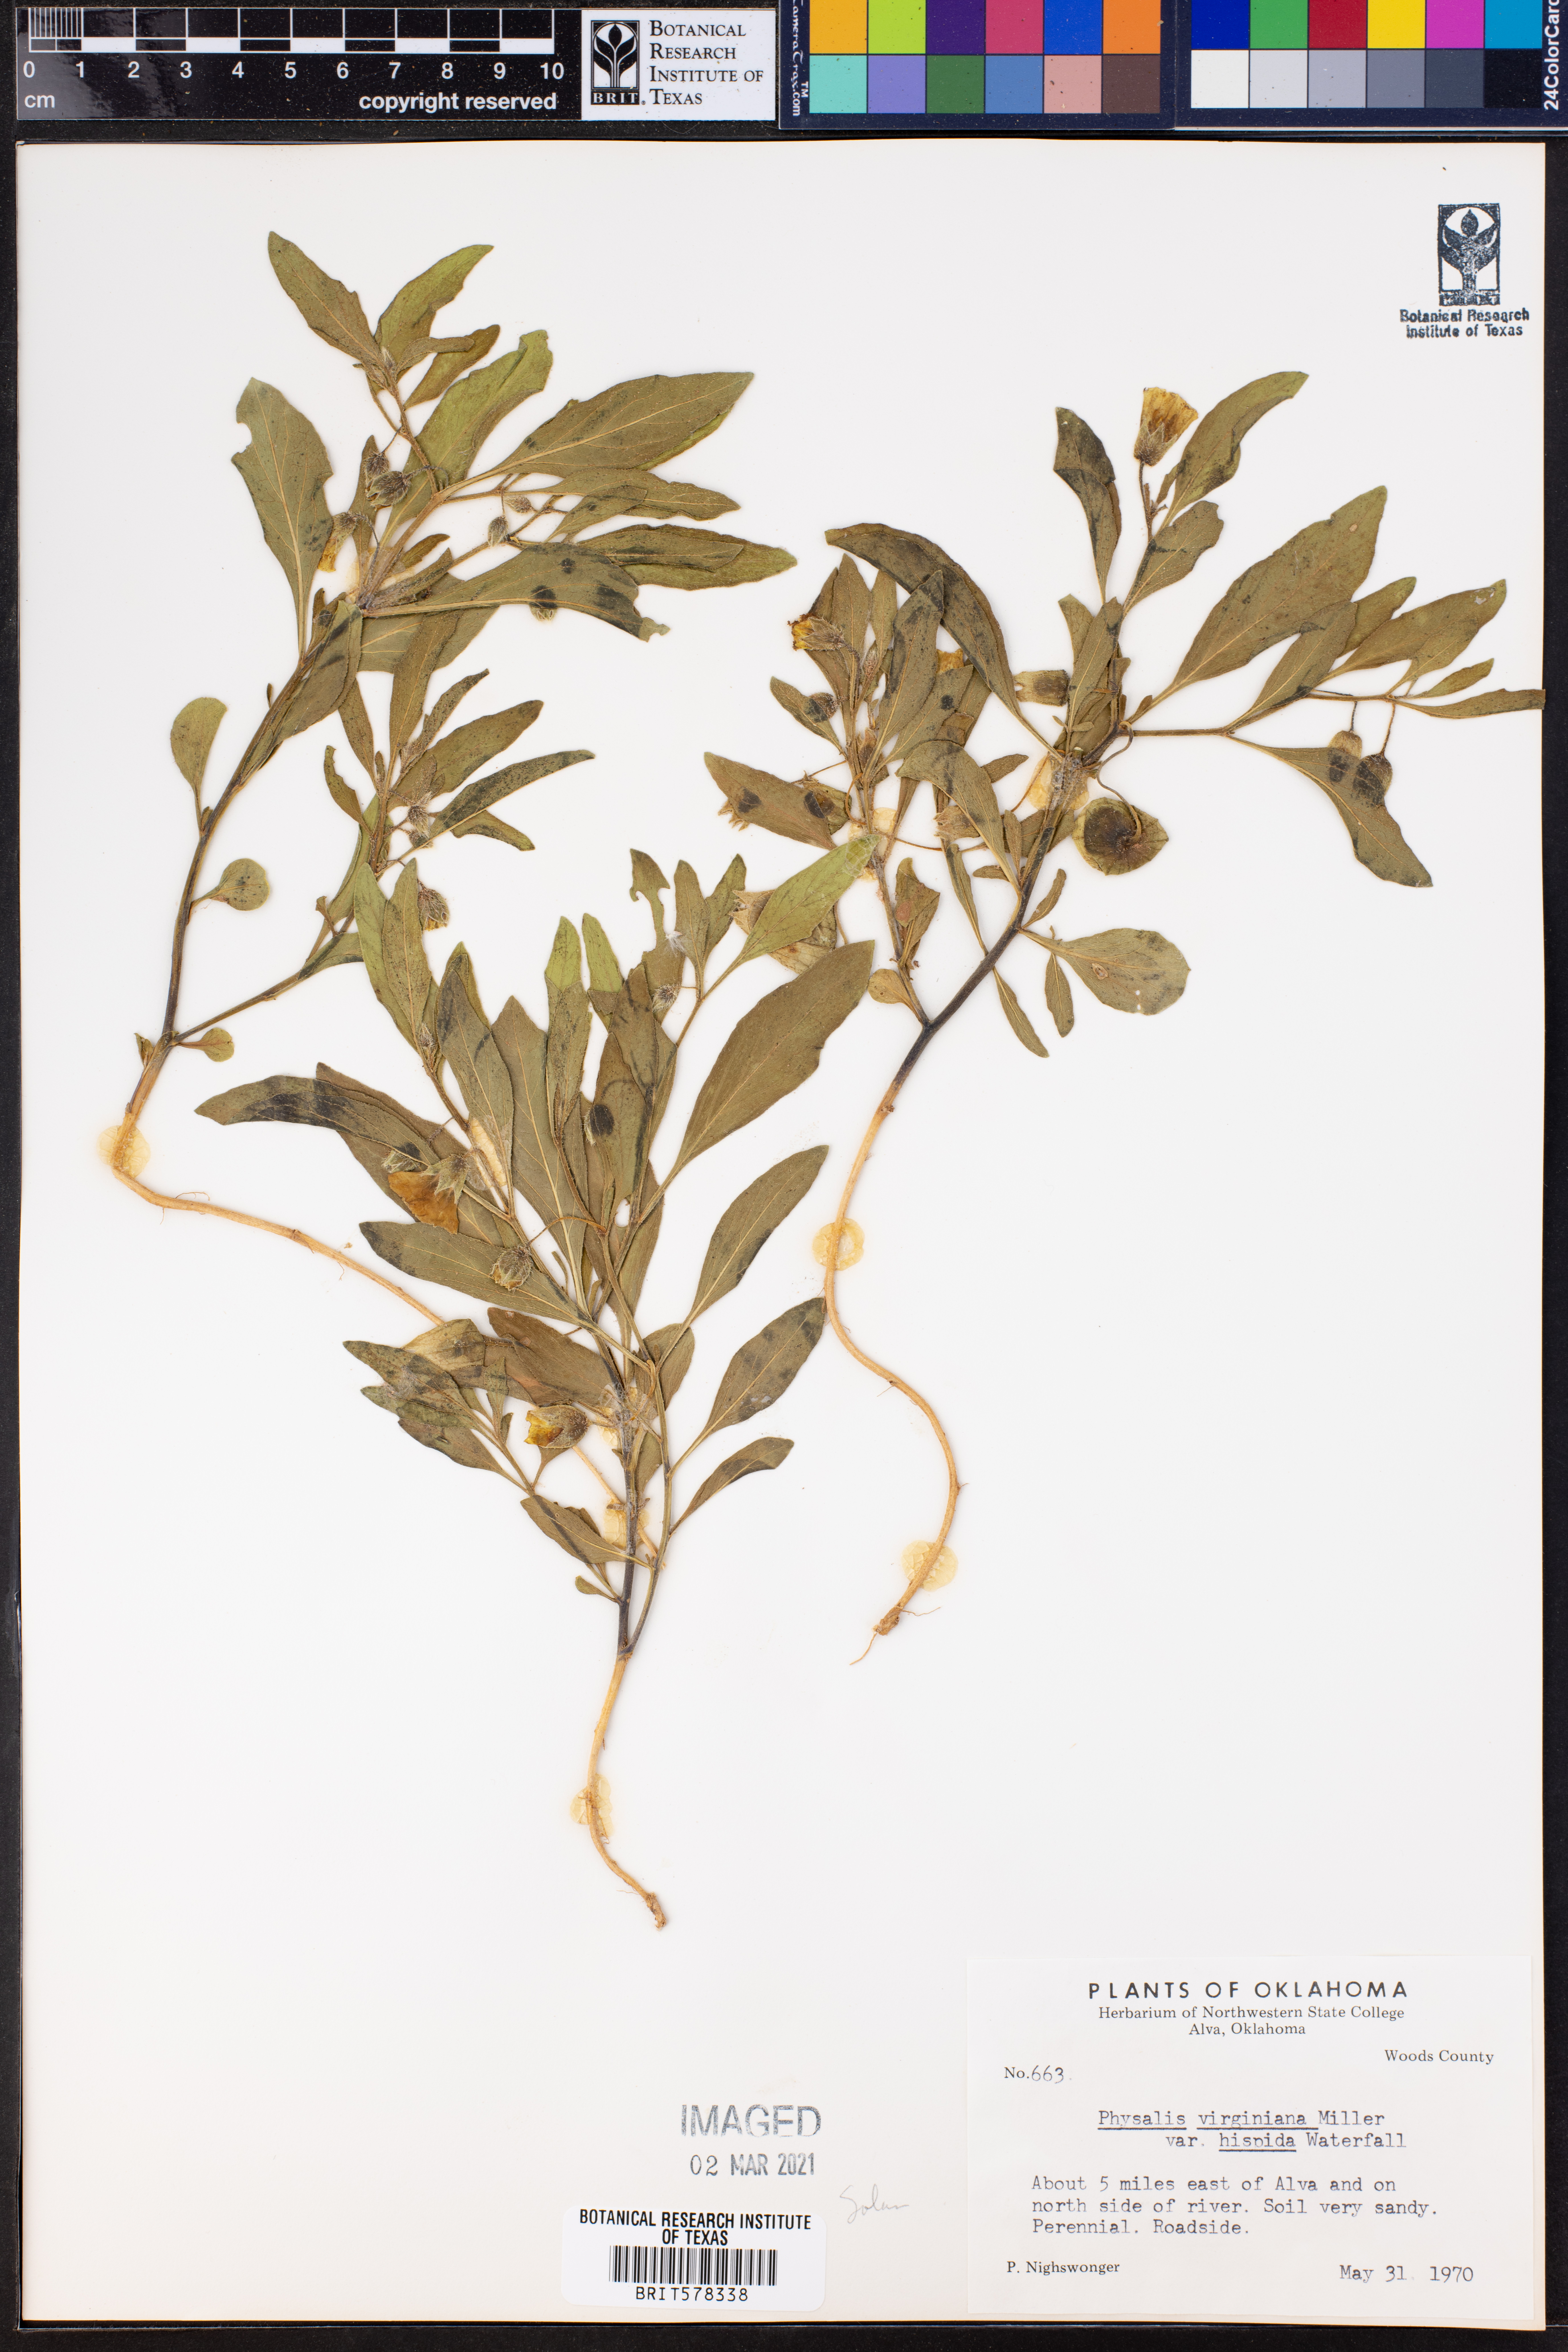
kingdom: Plantae
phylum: Tracheophyta
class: Magnoliopsida
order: Solanales
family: Solanaceae
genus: Physalis
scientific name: Physalis pumila
